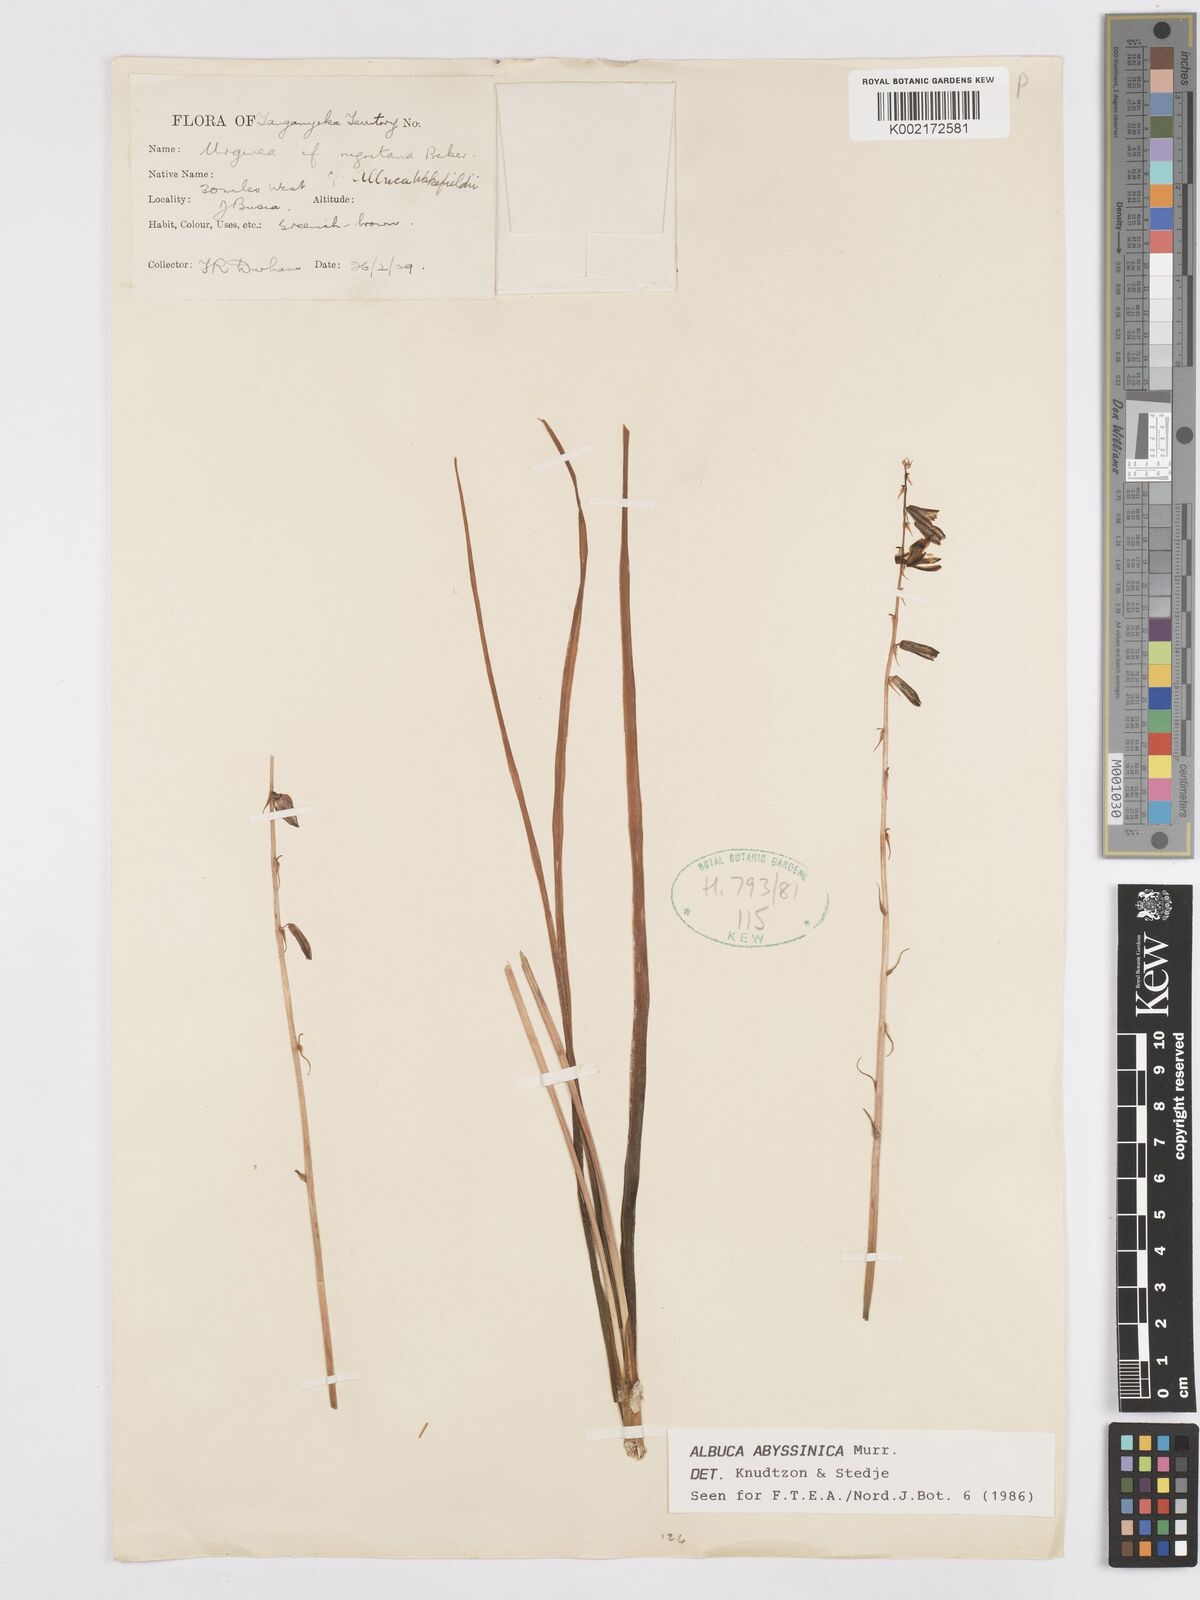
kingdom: Plantae
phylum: Tracheophyta
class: Liliopsida
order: Asparagales
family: Asparagaceae
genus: Albuca
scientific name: Albuca abyssinica
